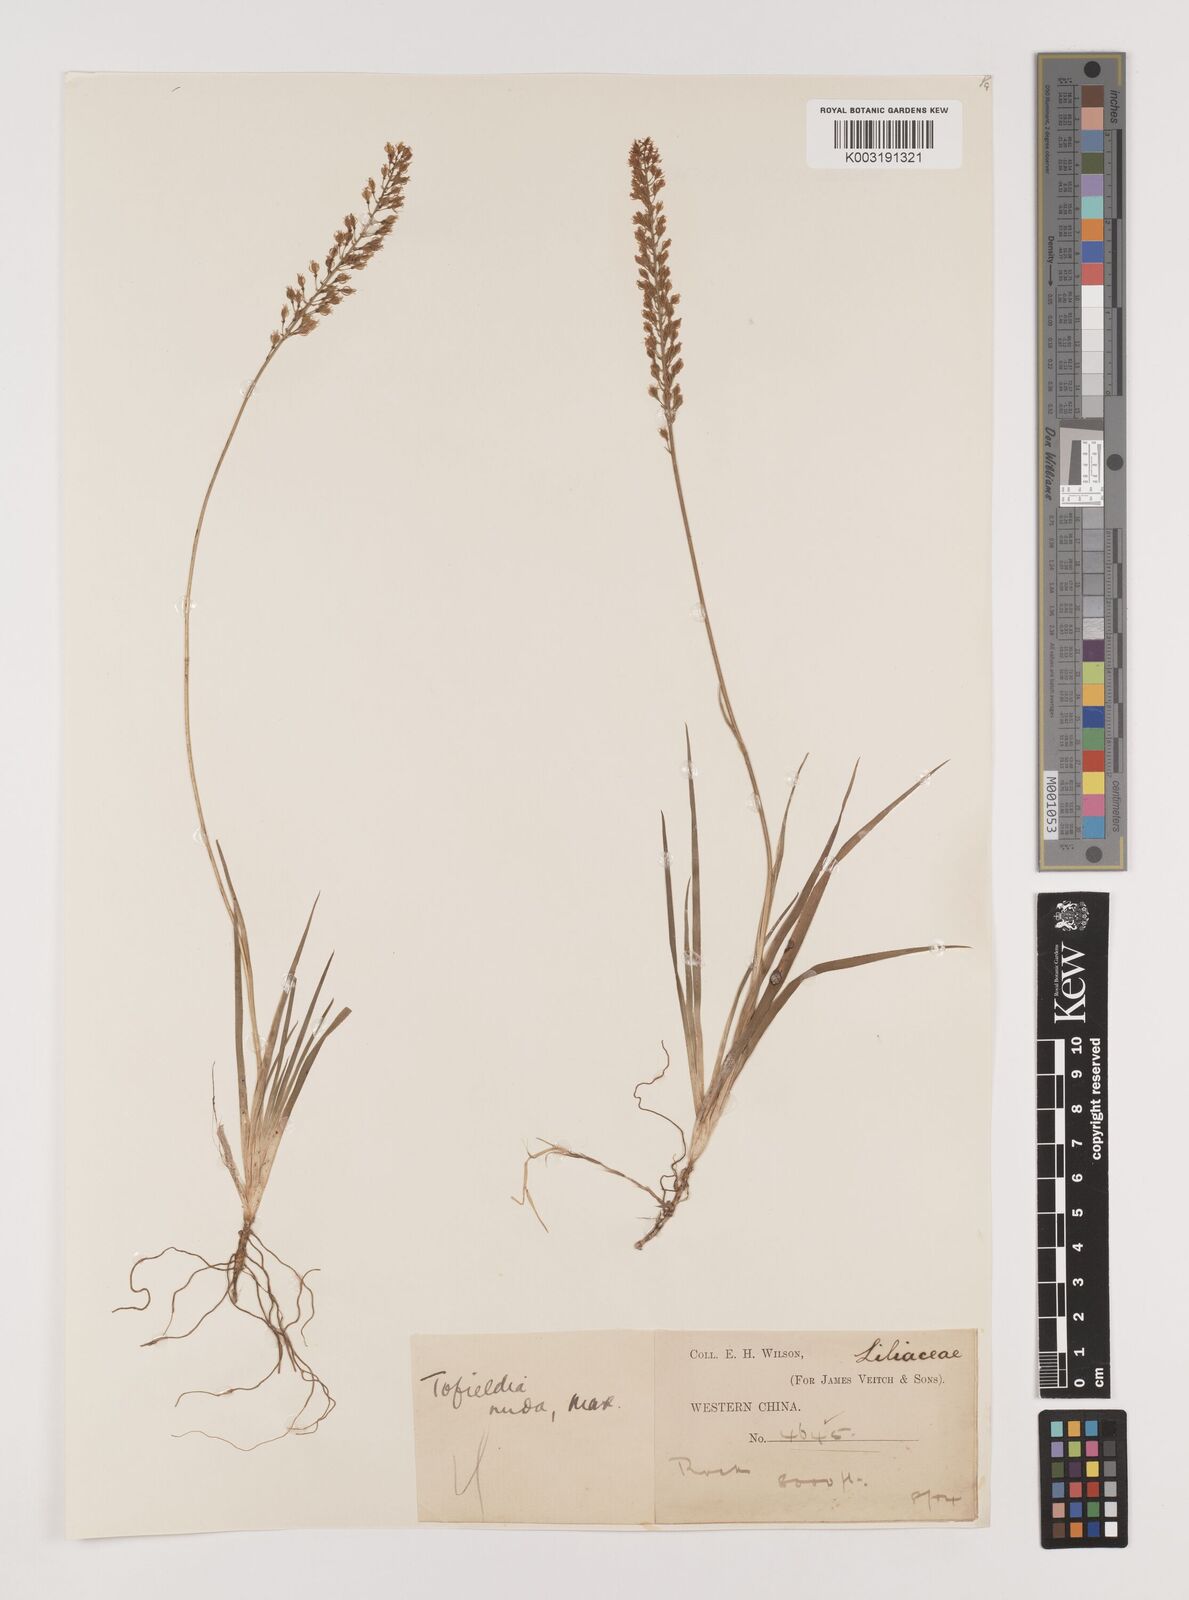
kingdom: Plantae
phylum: Tracheophyta
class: Liliopsida
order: Alismatales
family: Tofieldiaceae
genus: Tofieldia
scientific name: Tofieldia nuda
